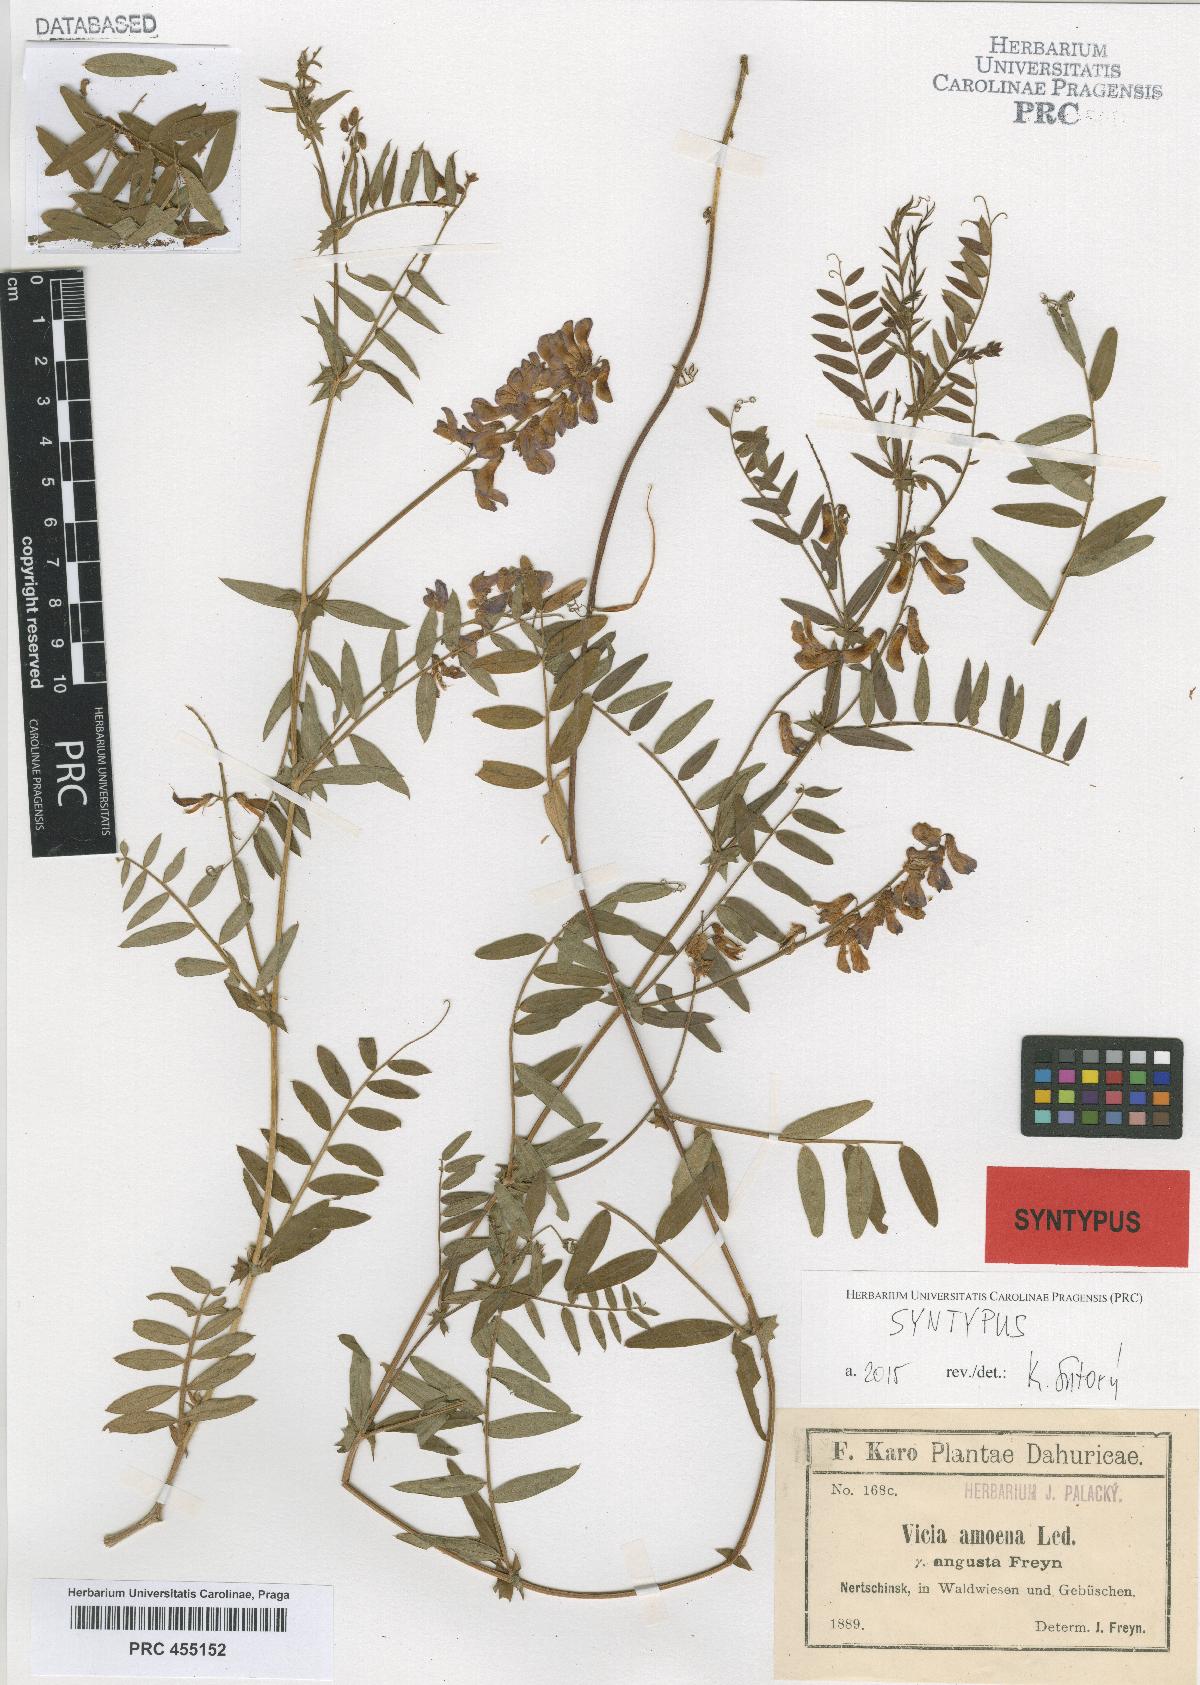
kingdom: Plantae
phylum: Tracheophyta
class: Magnoliopsida
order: Fabales
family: Fabaceae
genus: Vicia
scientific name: Vicia amoena
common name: Cheder ebs
